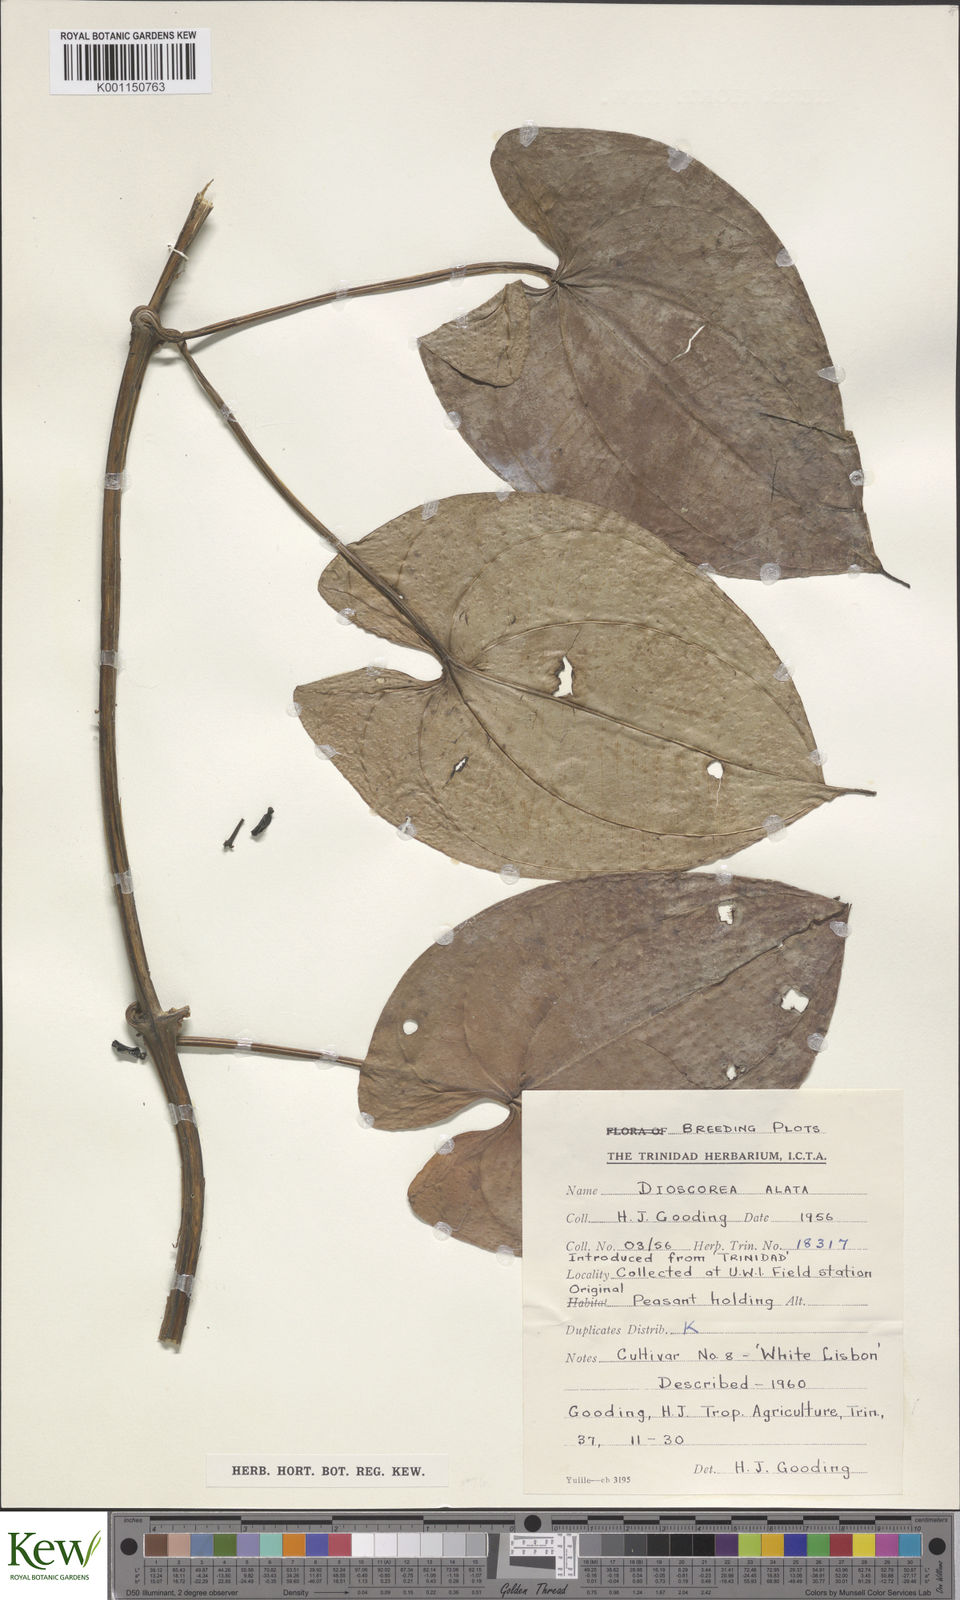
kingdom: Plantae
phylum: Tracheophyta
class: Liliopsida
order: Dioscoreales
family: Dioscoreaceae
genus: Dioscorea
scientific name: Dioscorea alata
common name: Water yam
